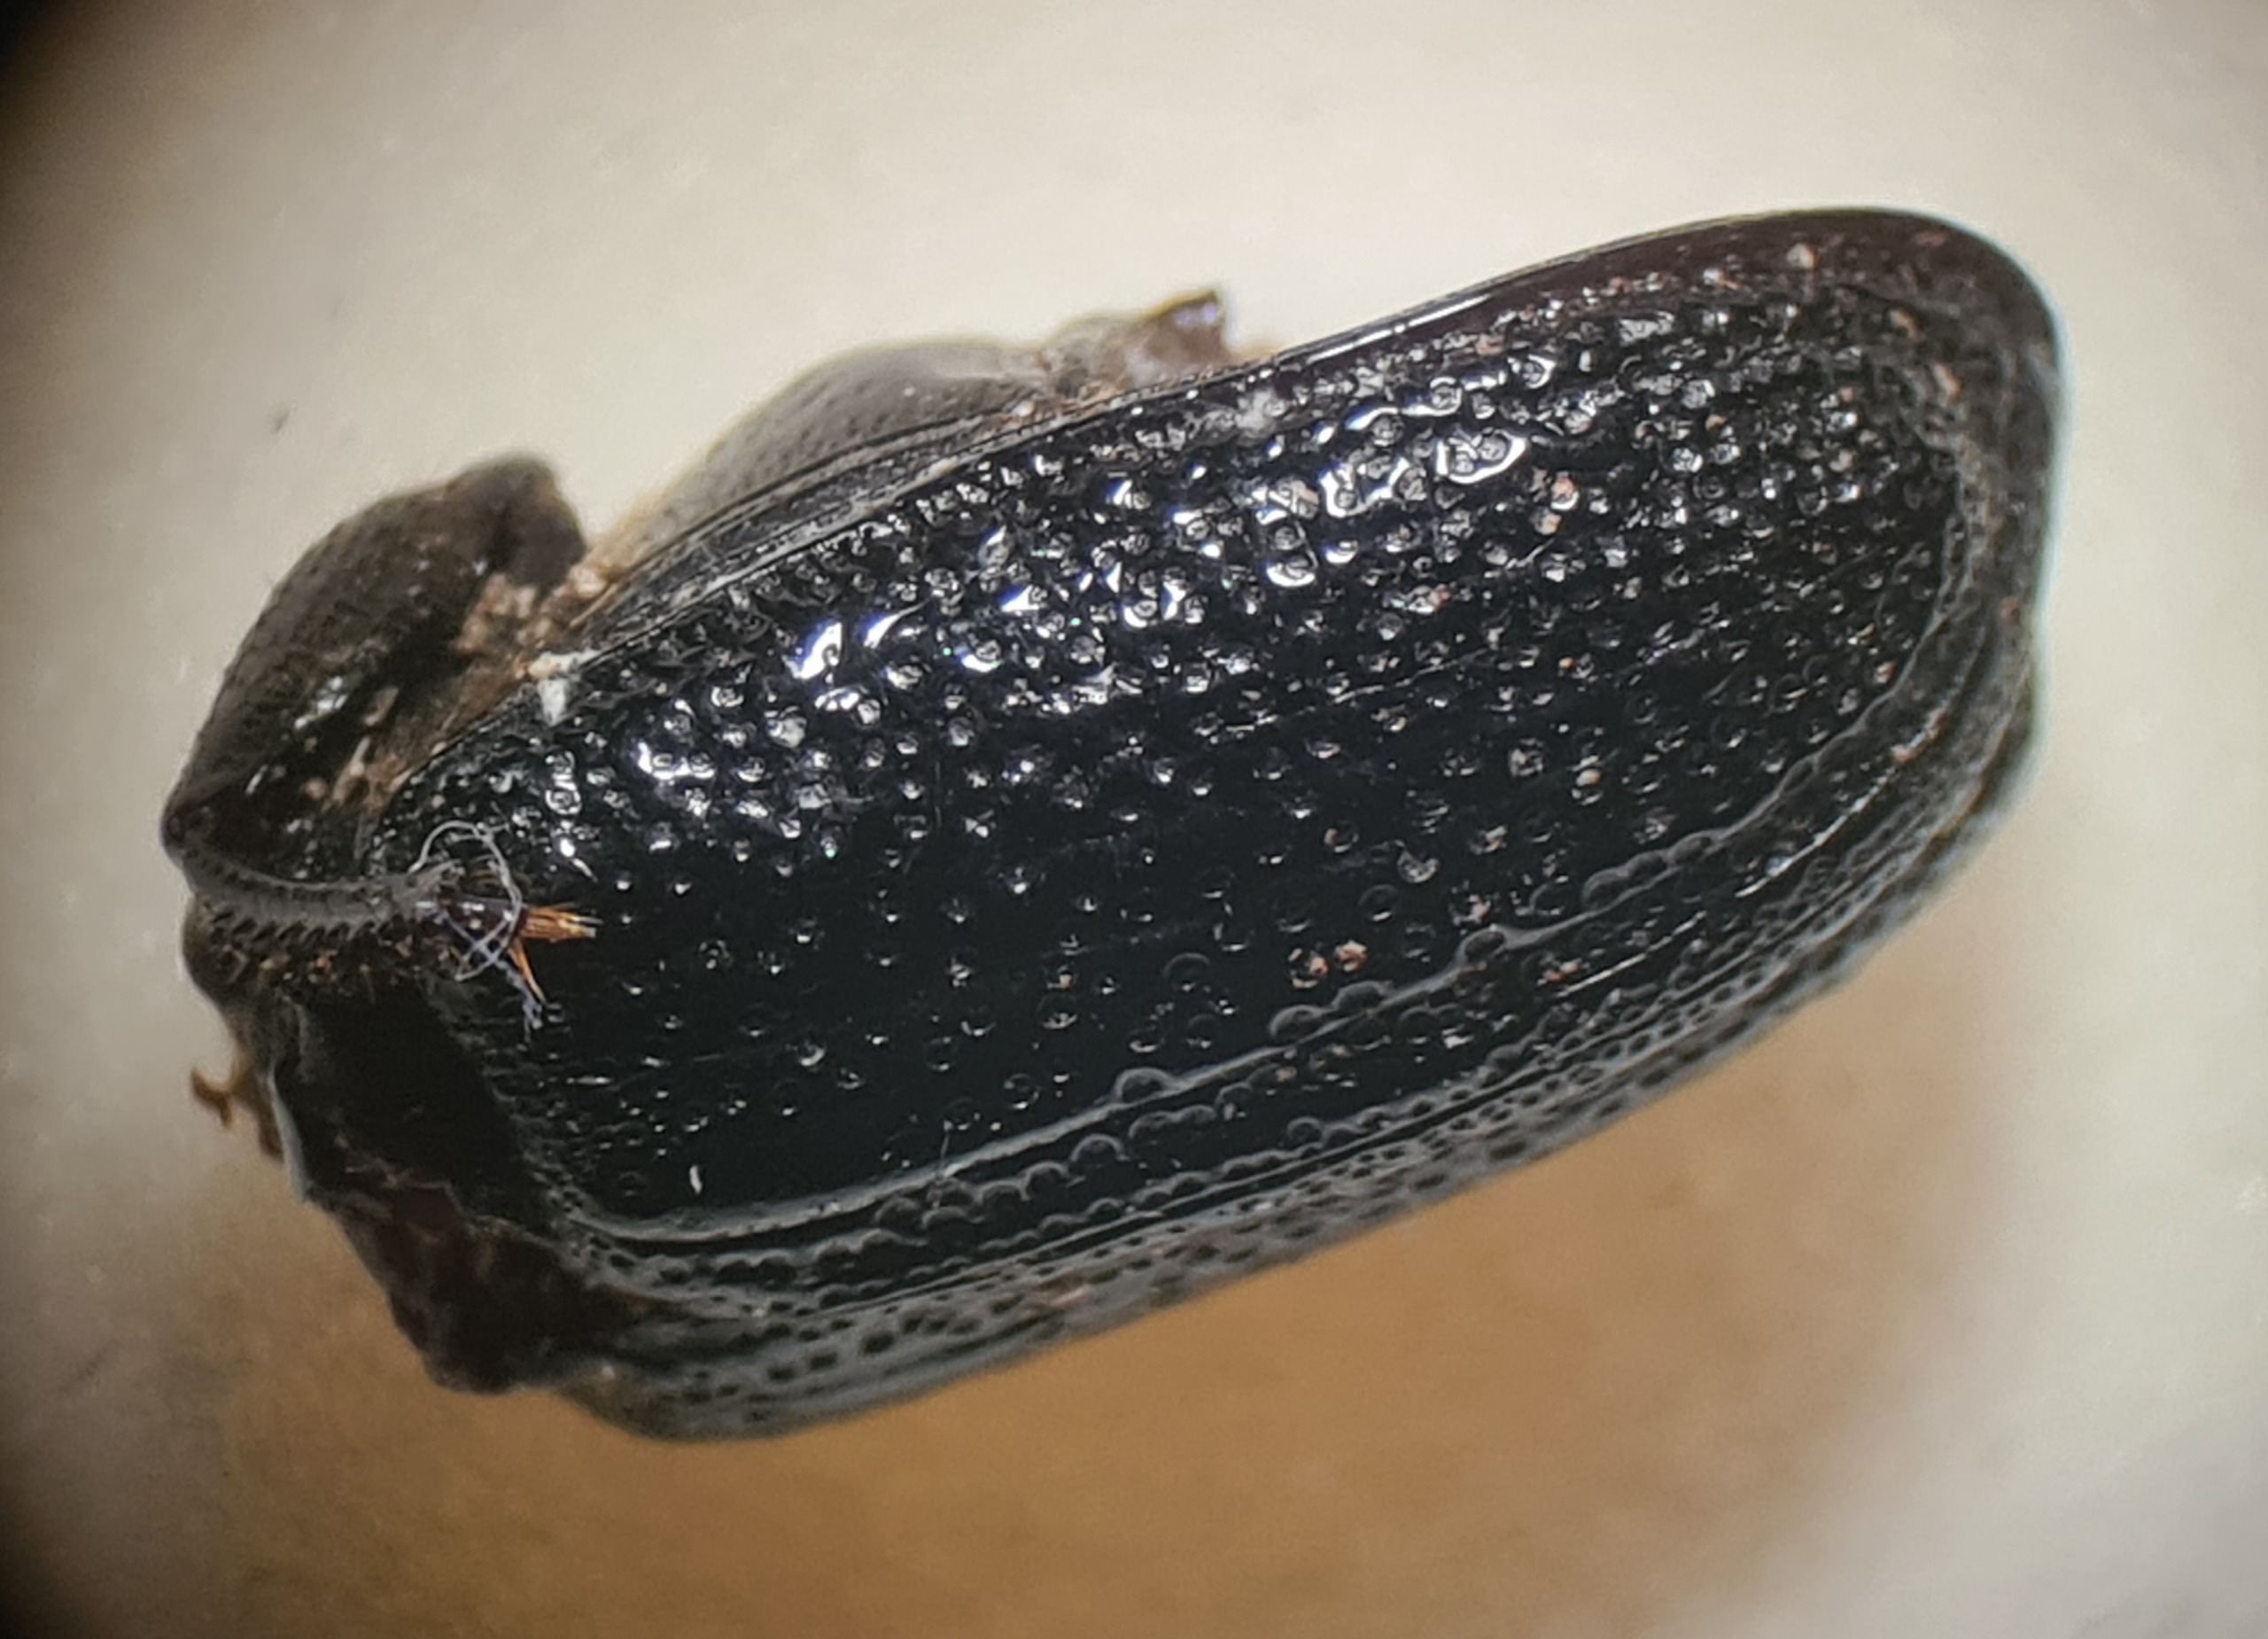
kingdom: Animalia
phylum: Arthropoda
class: Insecta
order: Coleoptera
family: Lucanidae
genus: Sinodendron
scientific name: Sinodendron cylindricum
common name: Valsehjort
